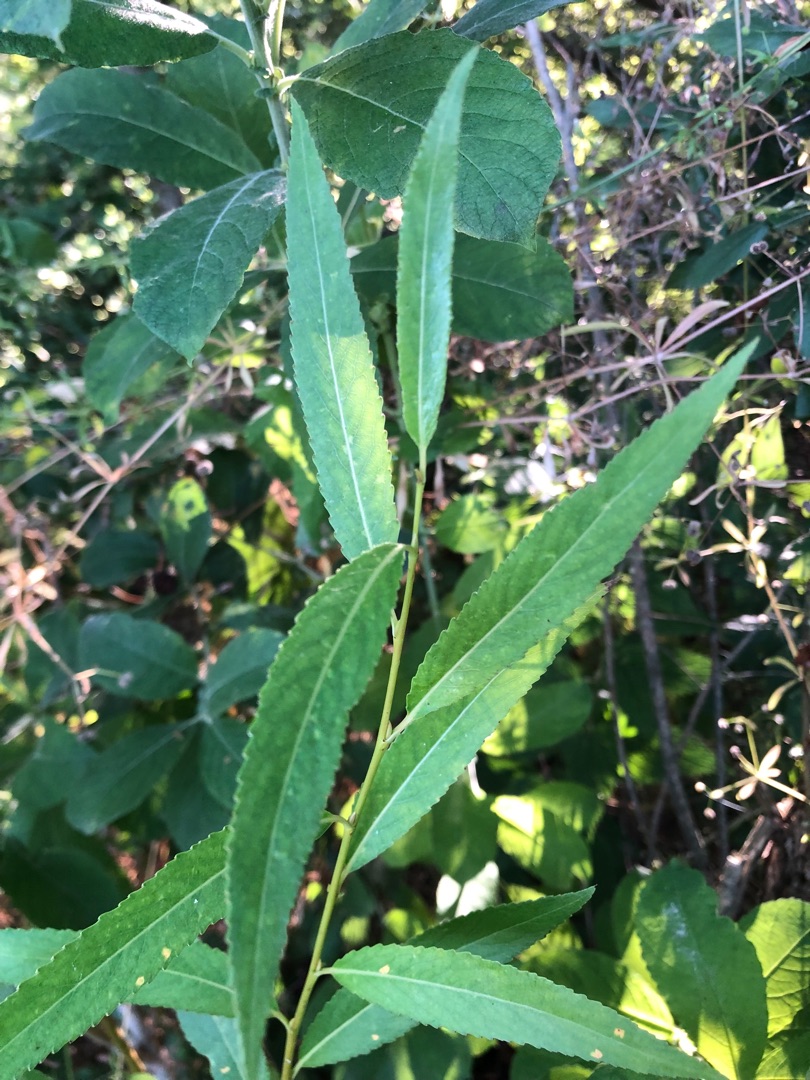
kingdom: Plantae
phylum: Tracheophyta
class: Magnoliopsida
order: Malpighiales
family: Salicaceae
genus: Salix
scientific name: Salix
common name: Pileslægten
